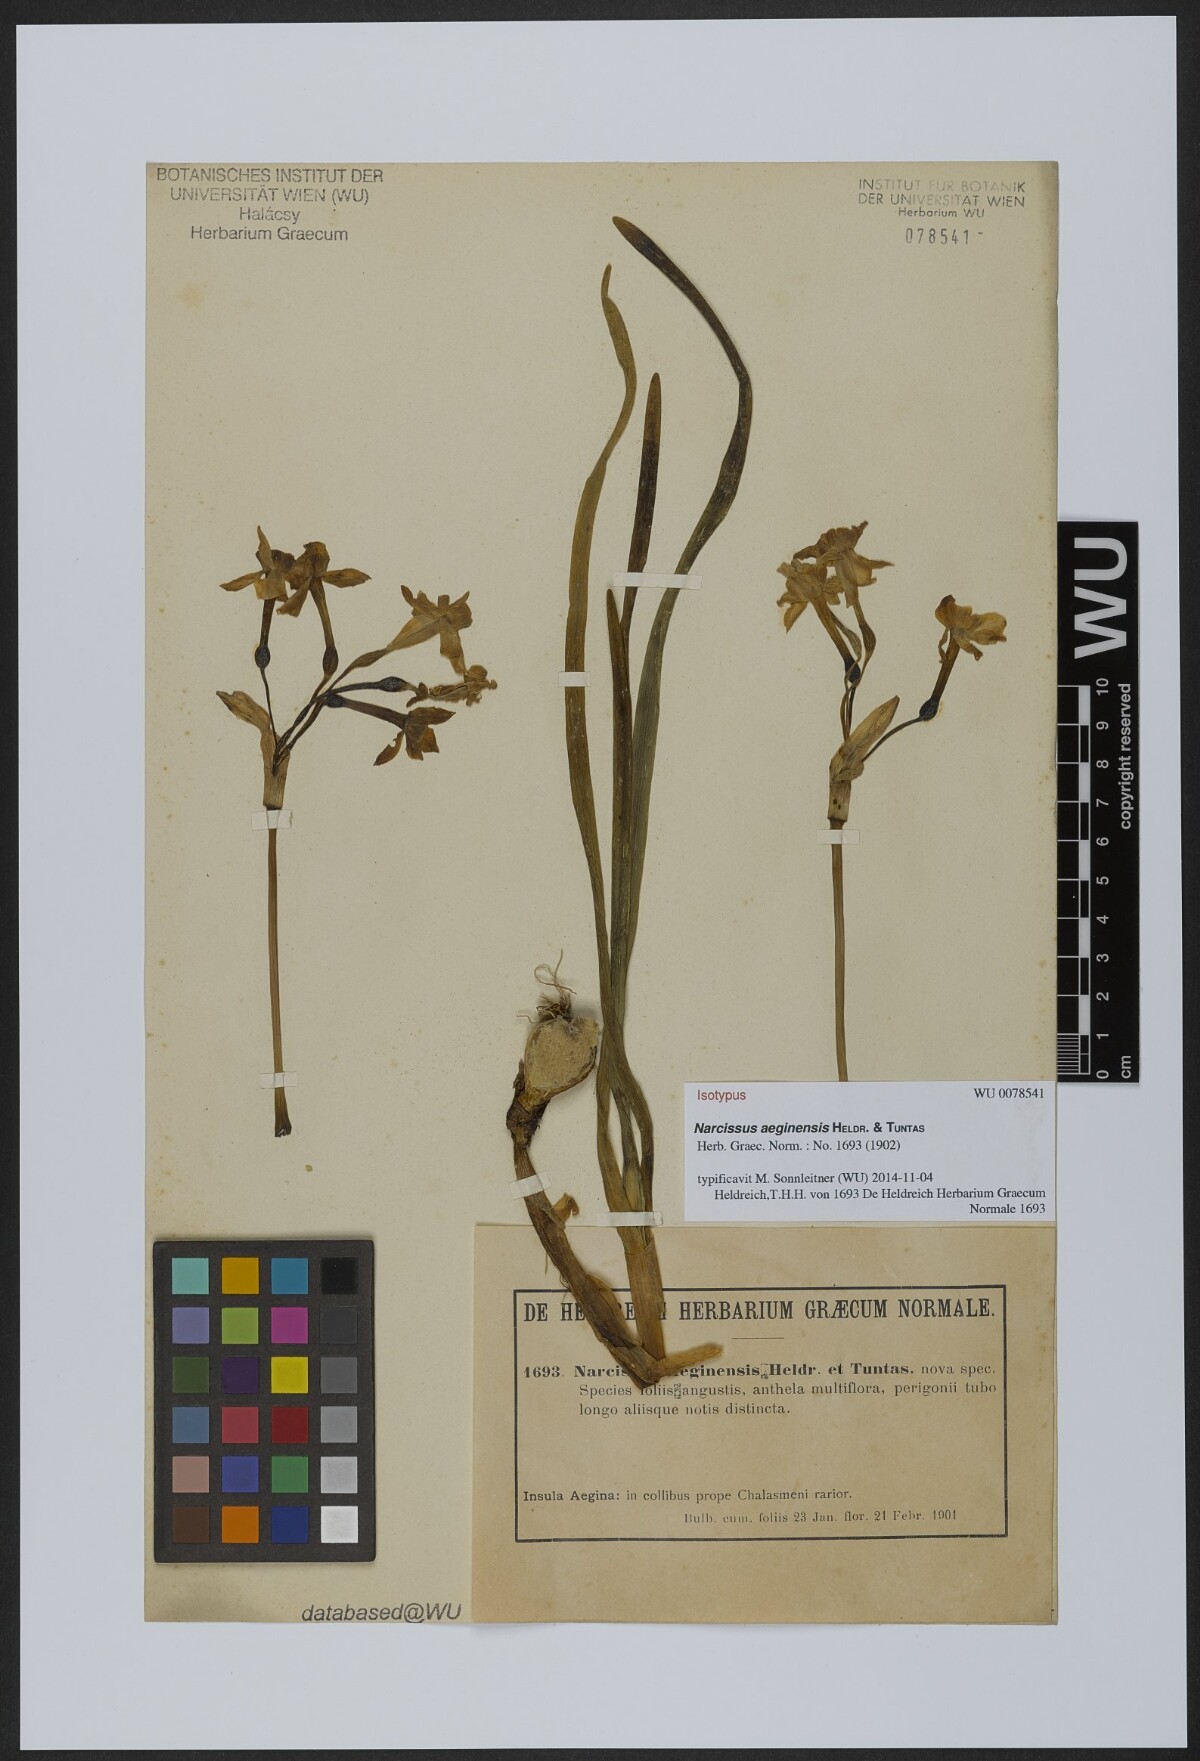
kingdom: Plantae
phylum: Tracheophyta
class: Liliopsida
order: Asparagales
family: Amaryllidaceae
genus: Narcissus
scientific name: Narcissus
